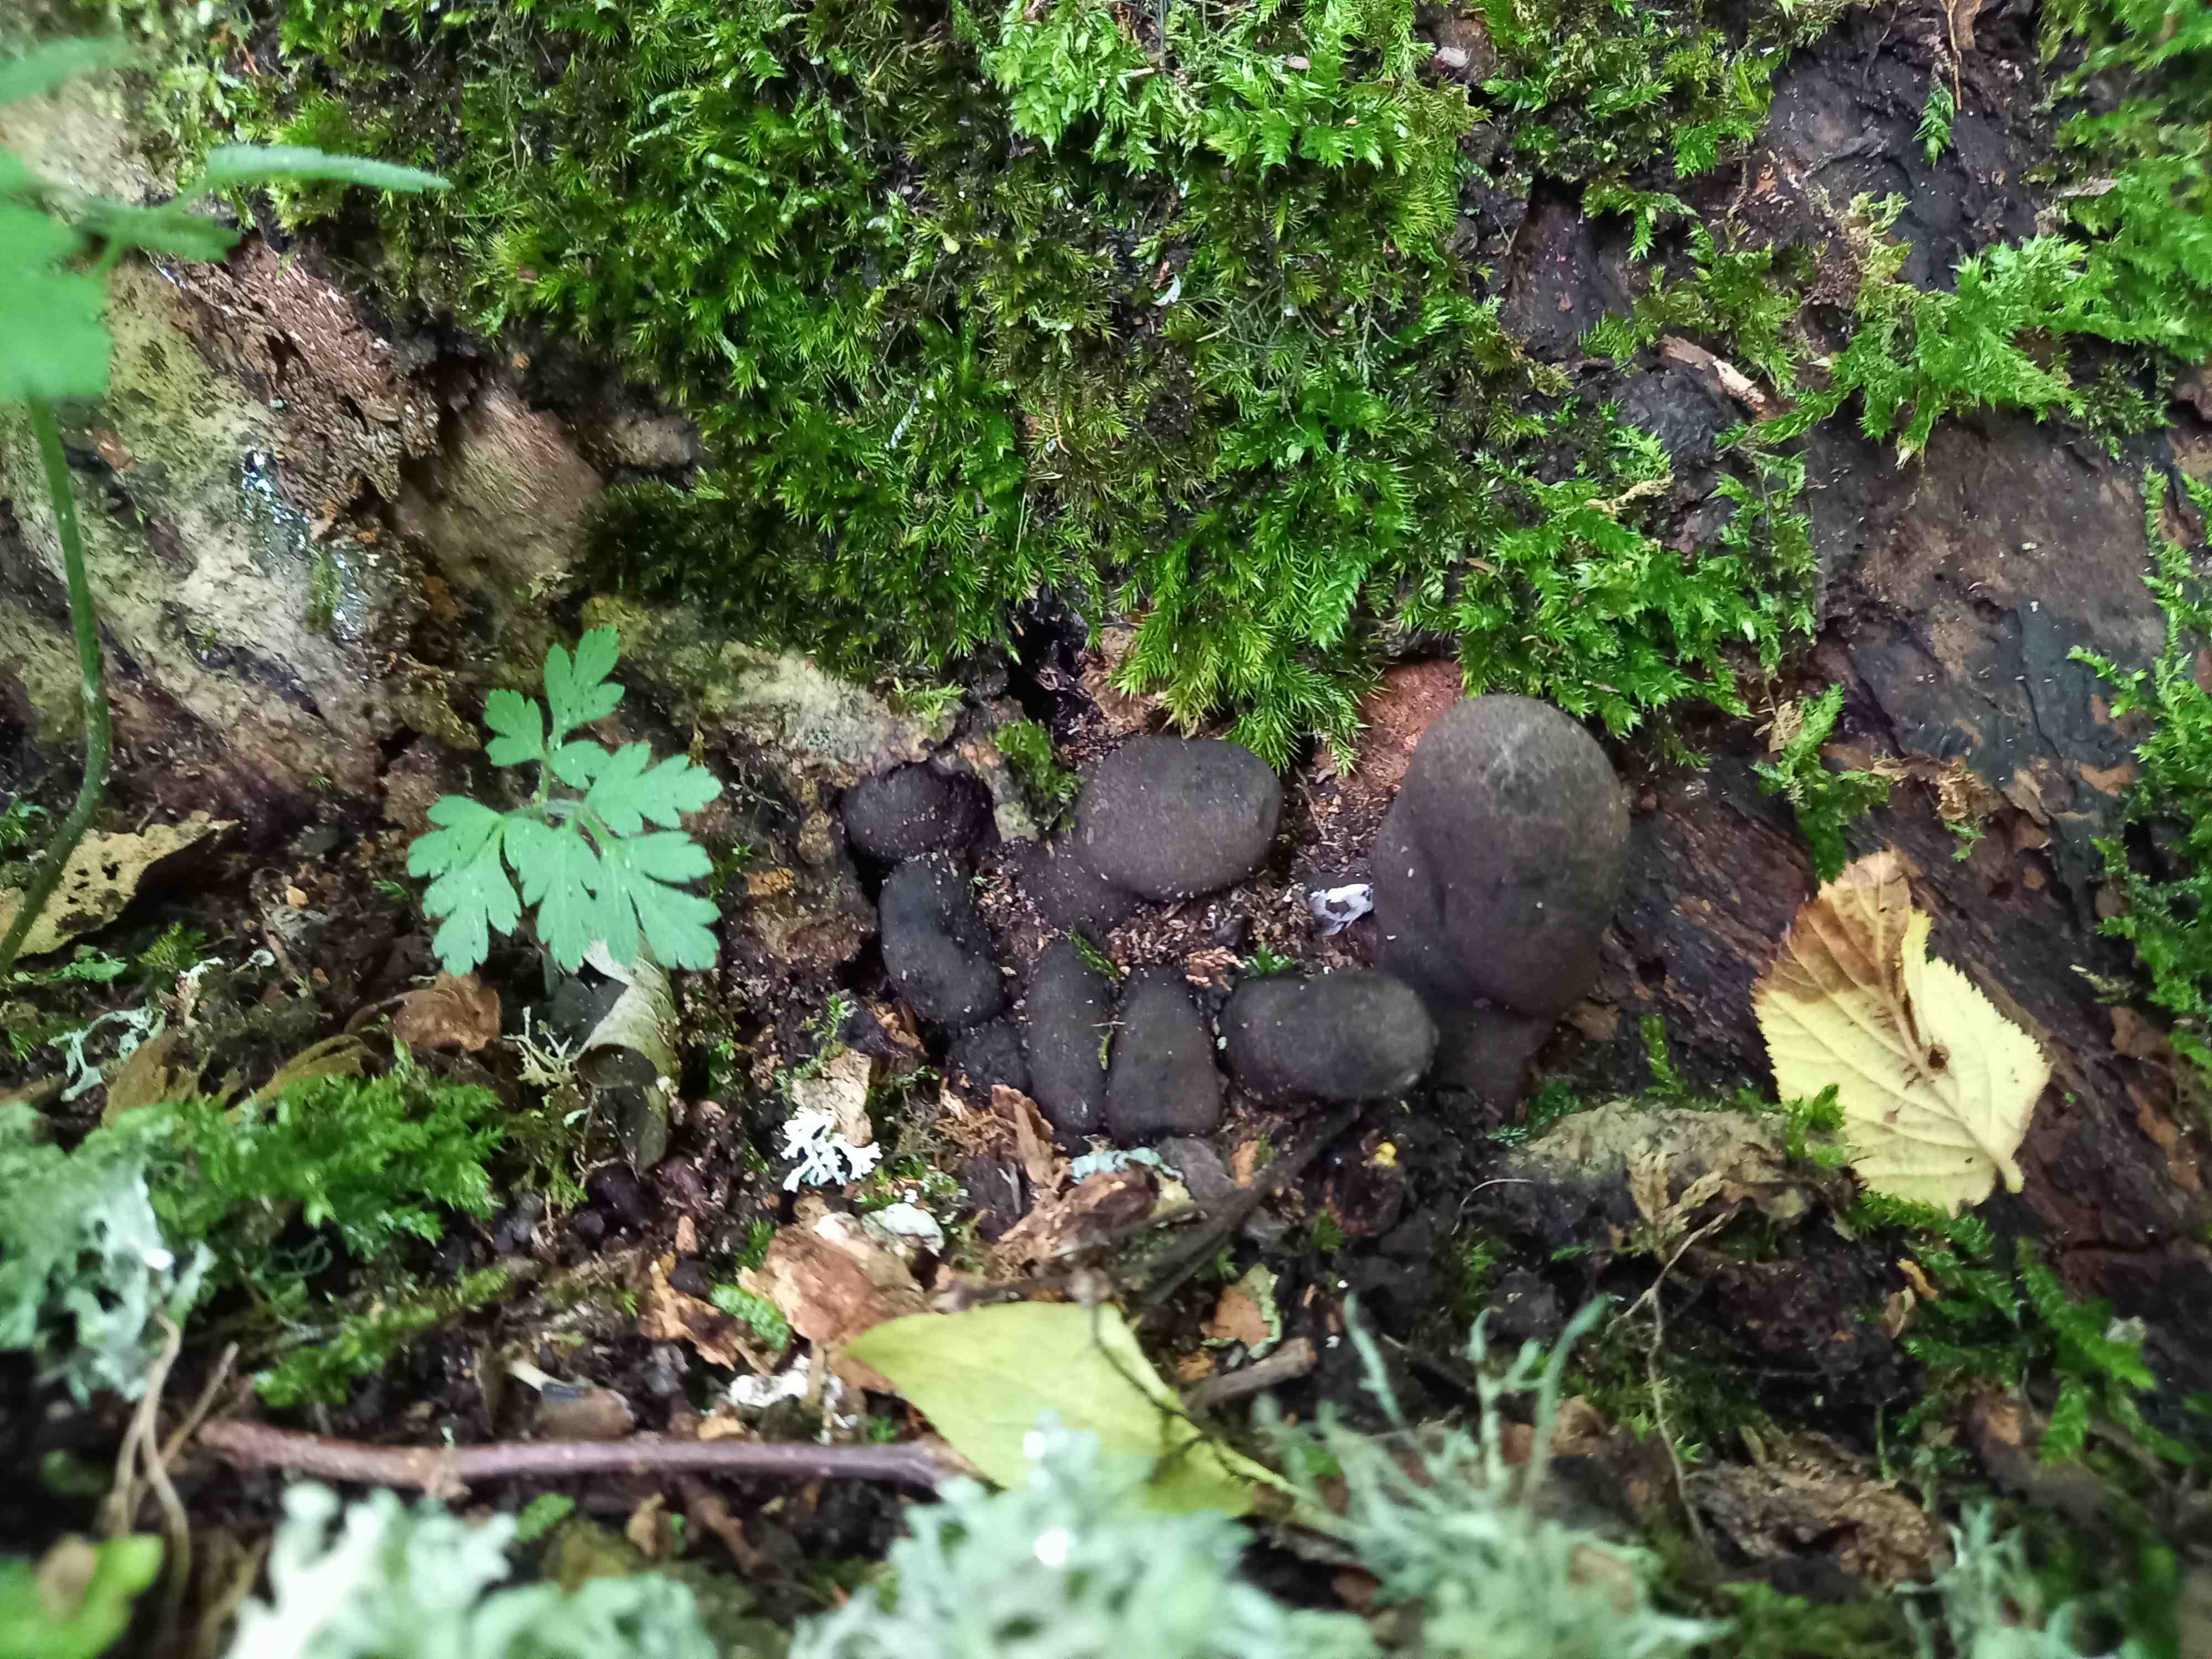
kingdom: Fungi
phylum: Ascomycota
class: Sordariomycetes
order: Xylariales
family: Xylariaceae
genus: Xylaria
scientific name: Xylaria polymorpha
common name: kølle-stødsvamp
